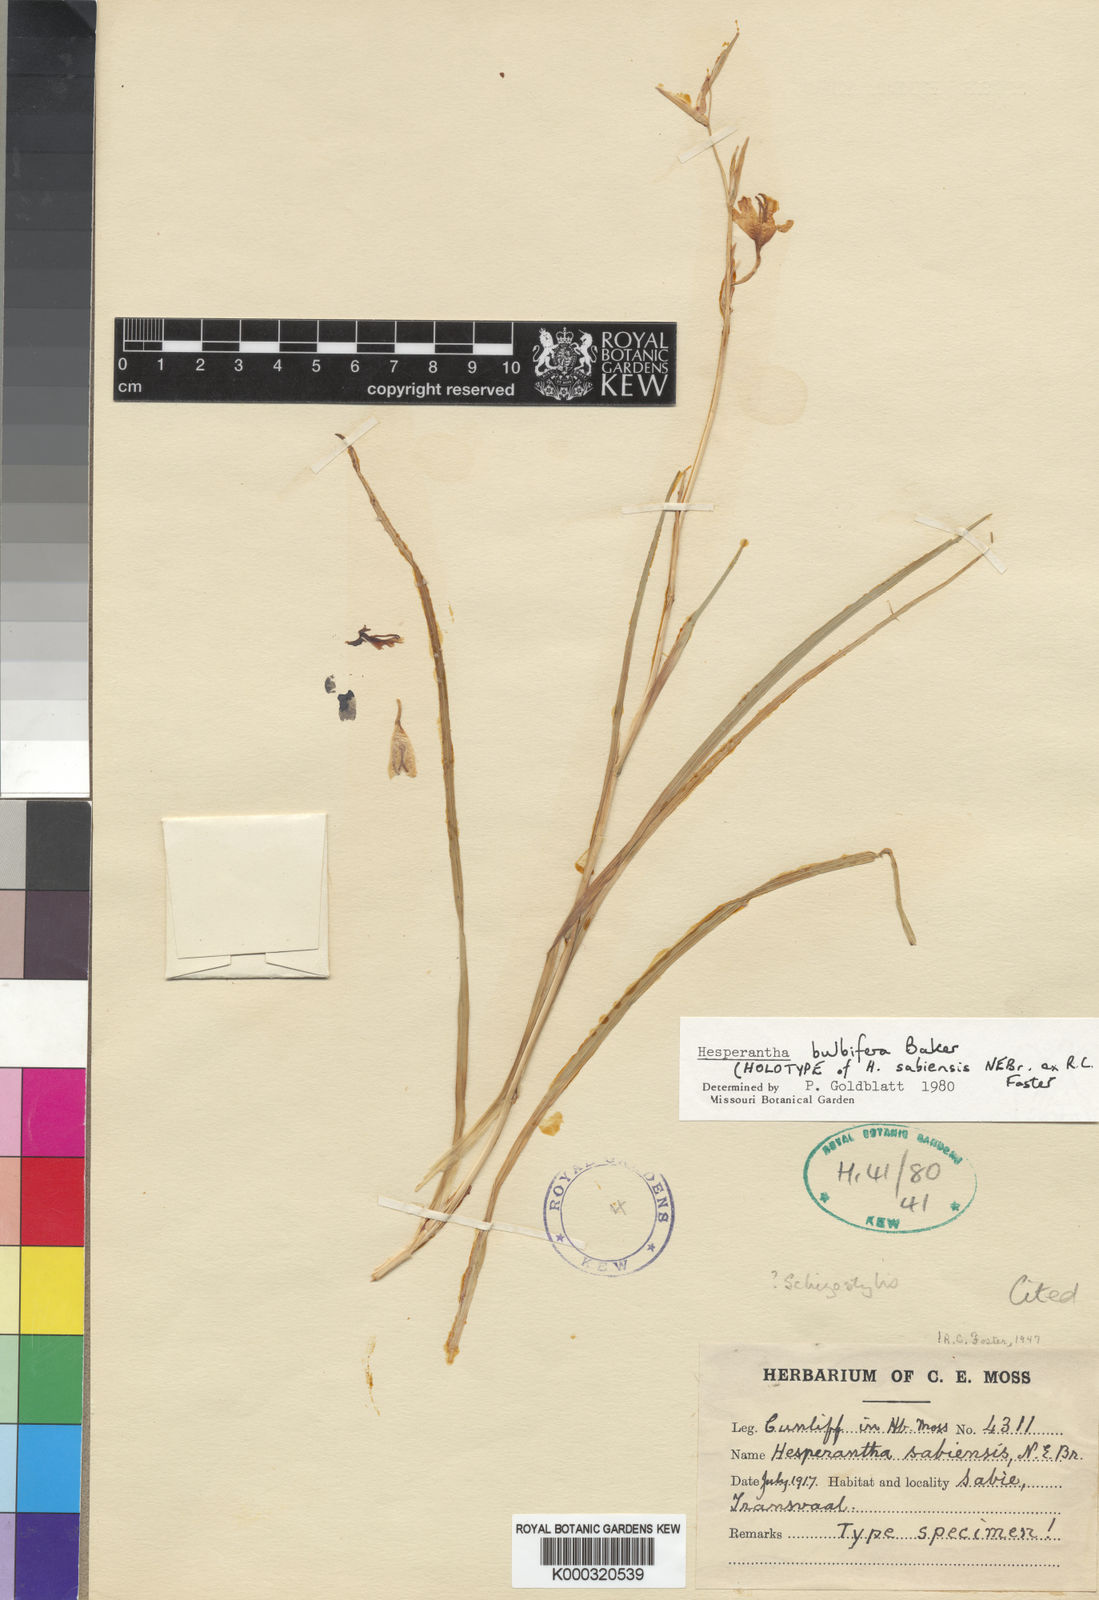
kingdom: Plantae
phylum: Tracheophyta
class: Liliopsida
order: Asparagales
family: Iridaceae
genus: Hesperantha
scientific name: Hesperantha bulbifera
